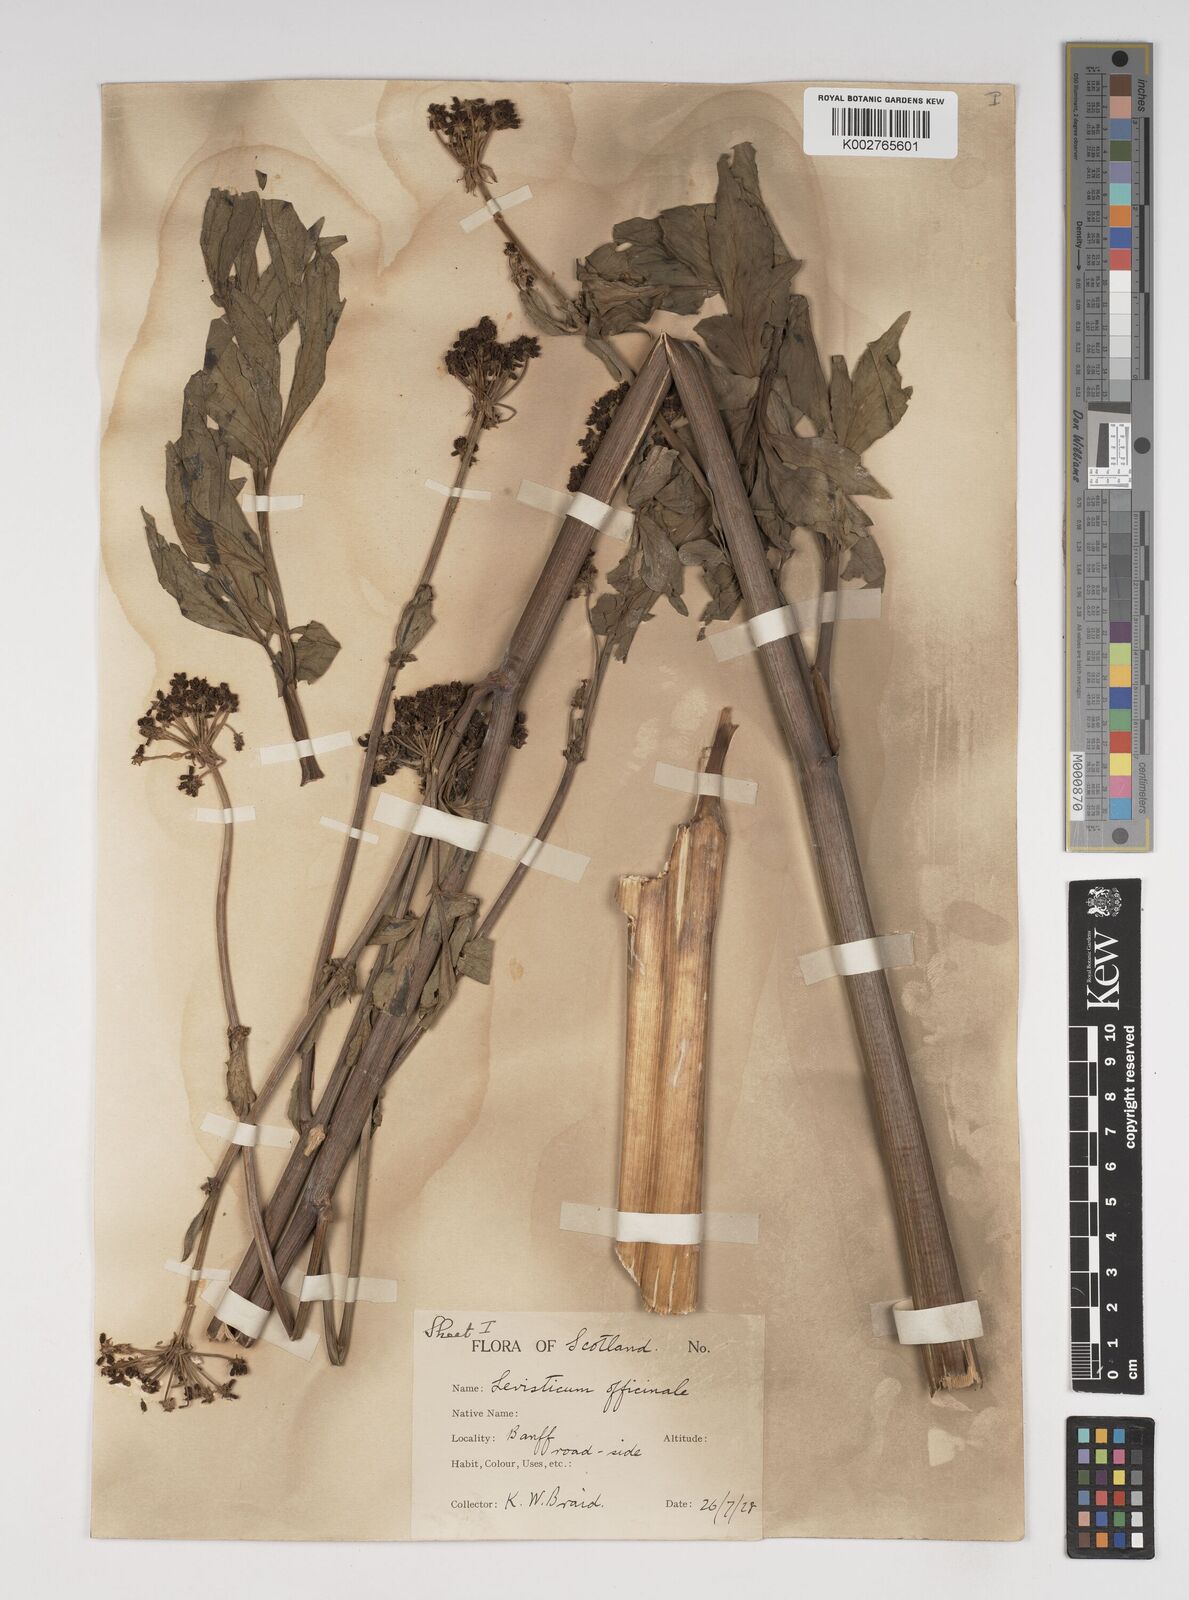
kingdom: Plantae
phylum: Tracheophyta
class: Magnoliopsida
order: Apiales
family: Apiaceae
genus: Levisticum
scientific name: Levisticum officinale
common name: Lovage
